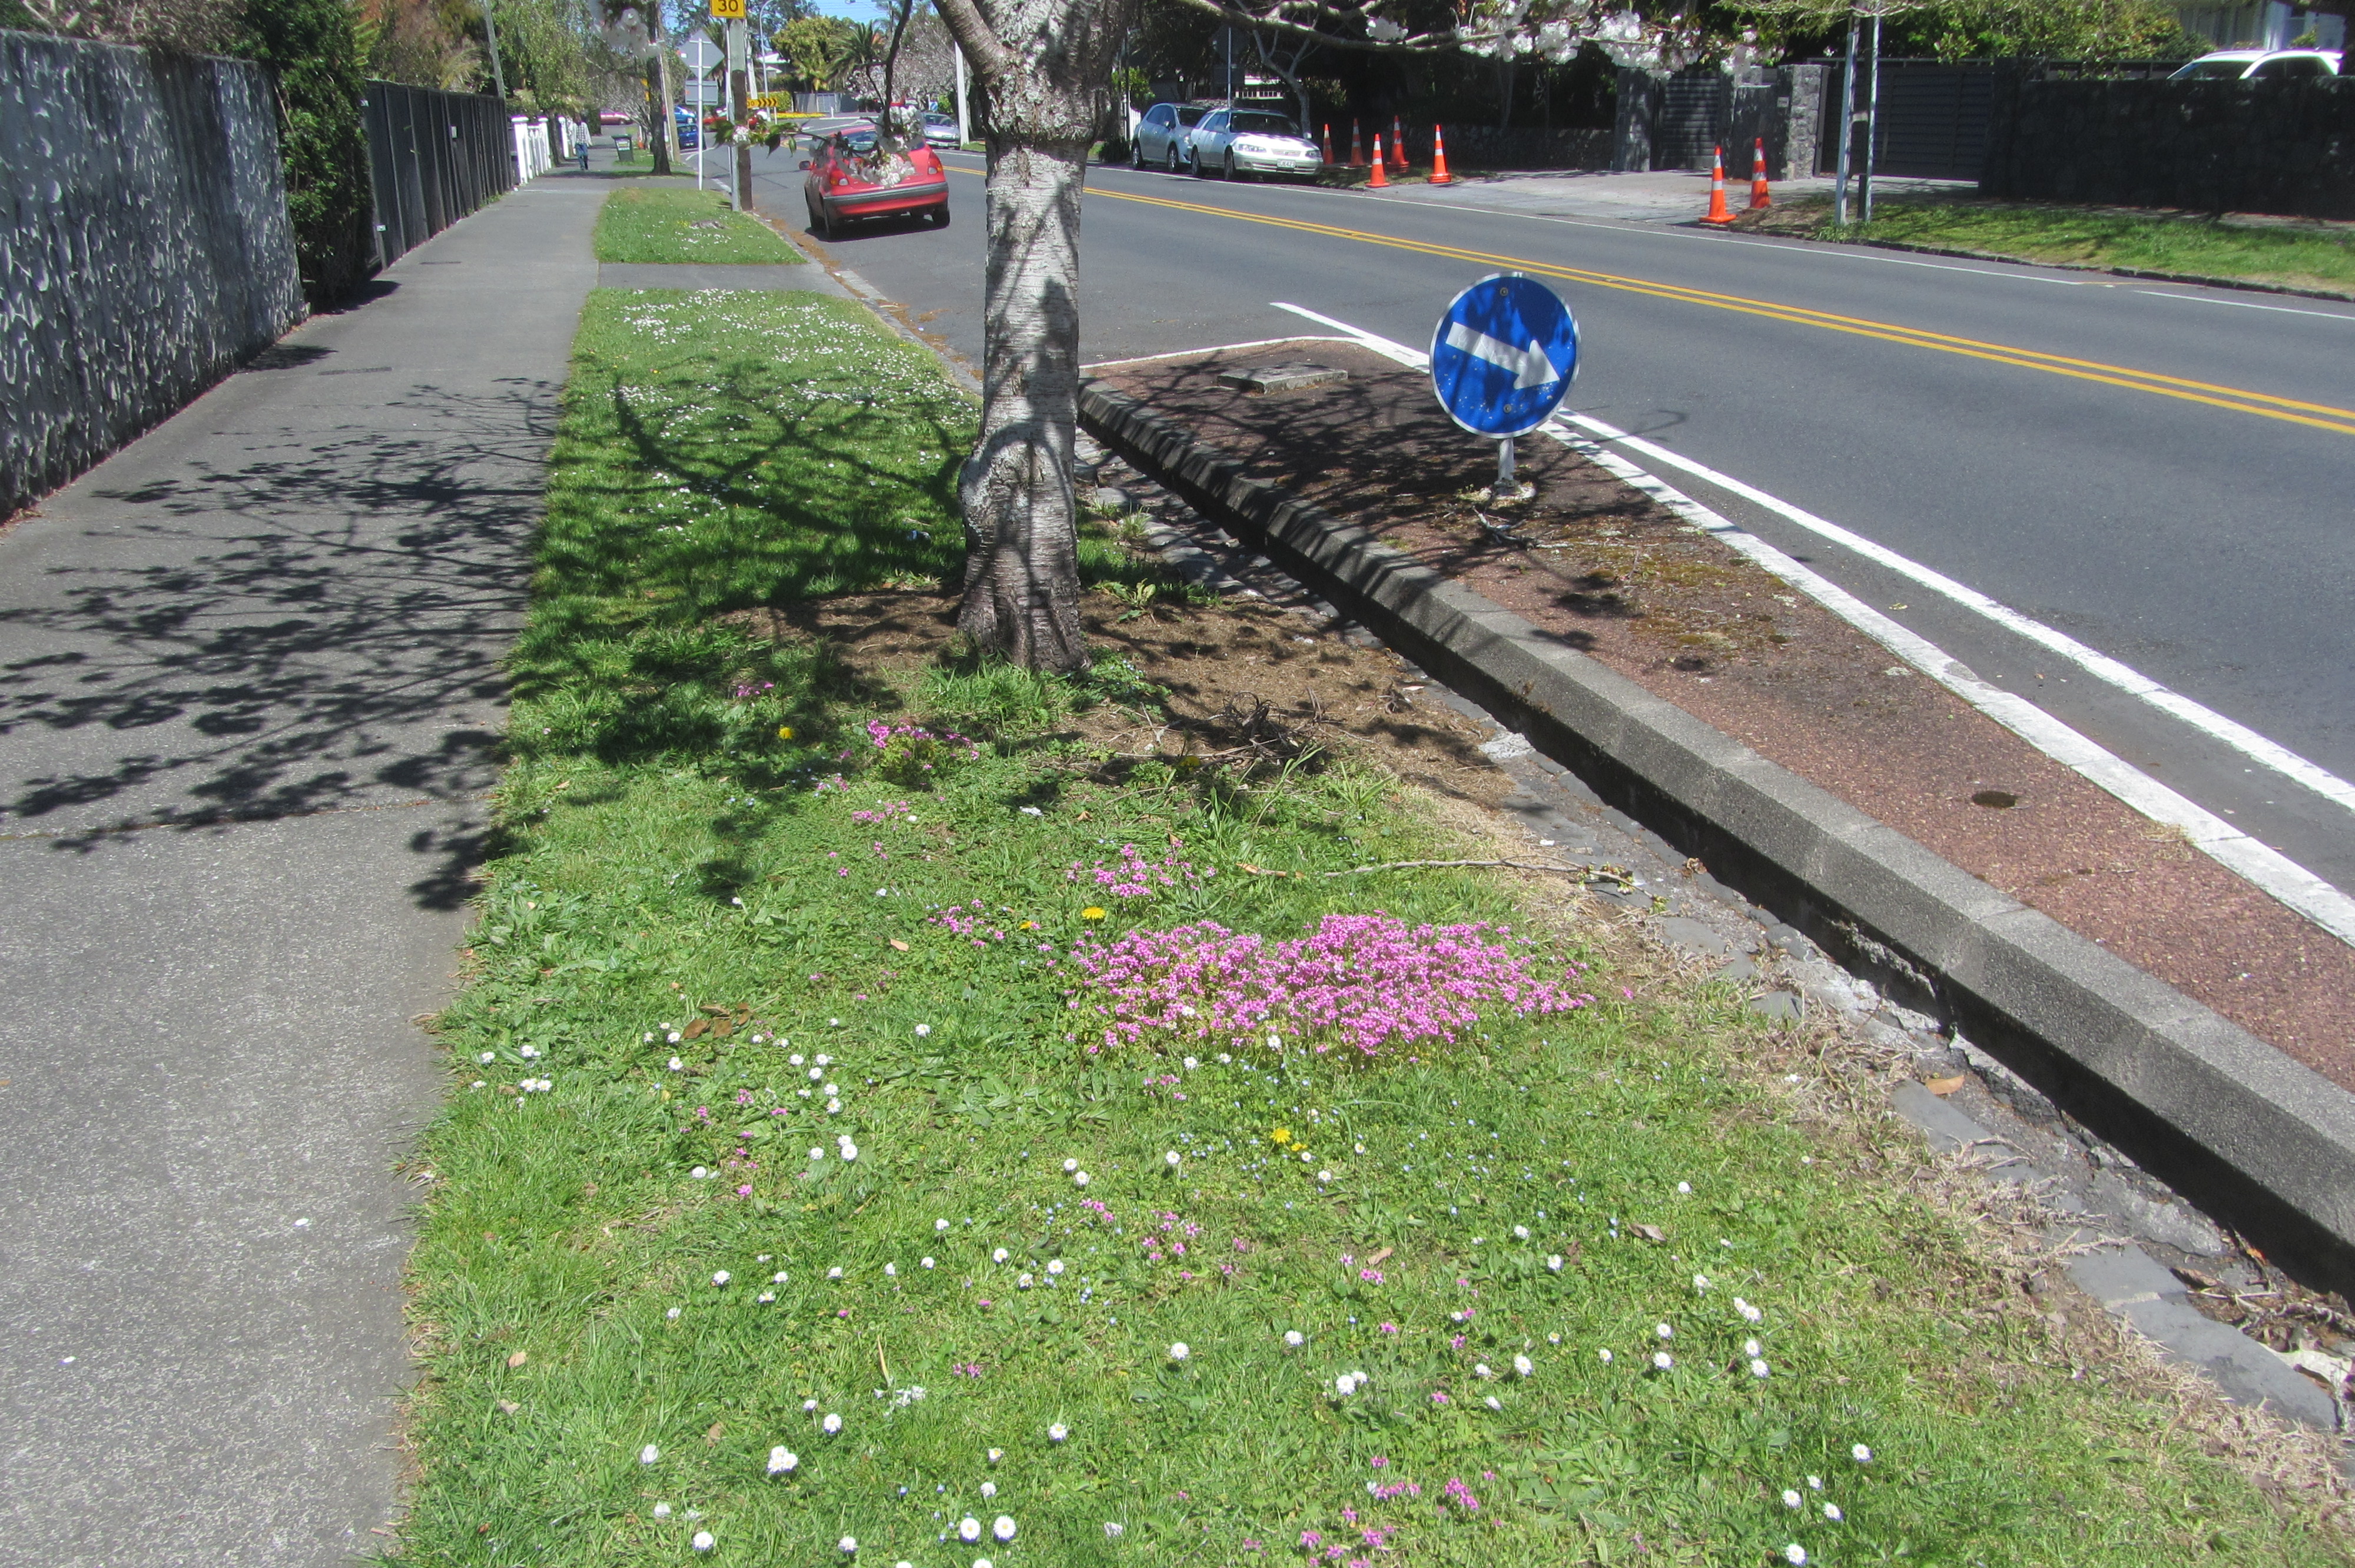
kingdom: Plantae
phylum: Tracheophyta
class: Magnoliopsida
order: Oxalidales
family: Oxalidaceae
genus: Oxalis
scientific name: Oxalis debilis
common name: Large-flowered pink-sorrel
